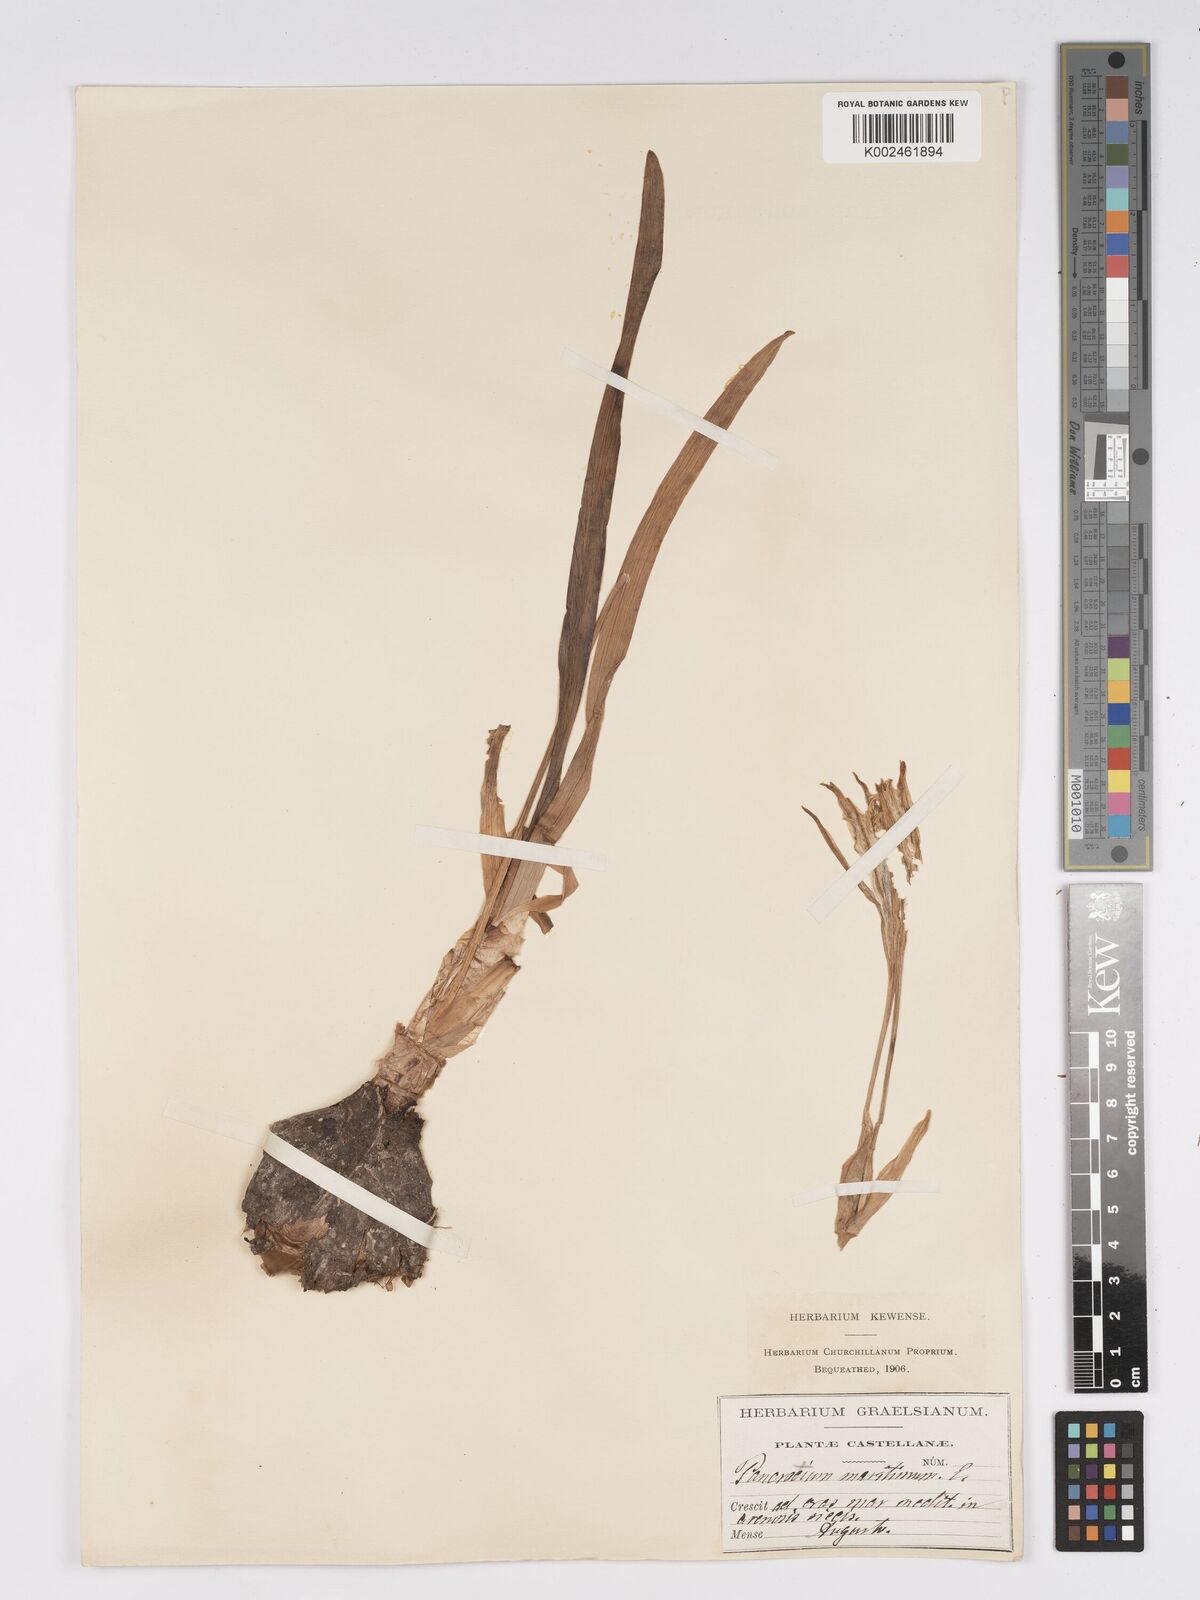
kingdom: Plantae
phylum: Tracheophyta
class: Liliopsida
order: Asparagales
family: Amaryllidaceae
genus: Pancratium
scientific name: Pancratium maritimum
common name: Sea-daffodil
